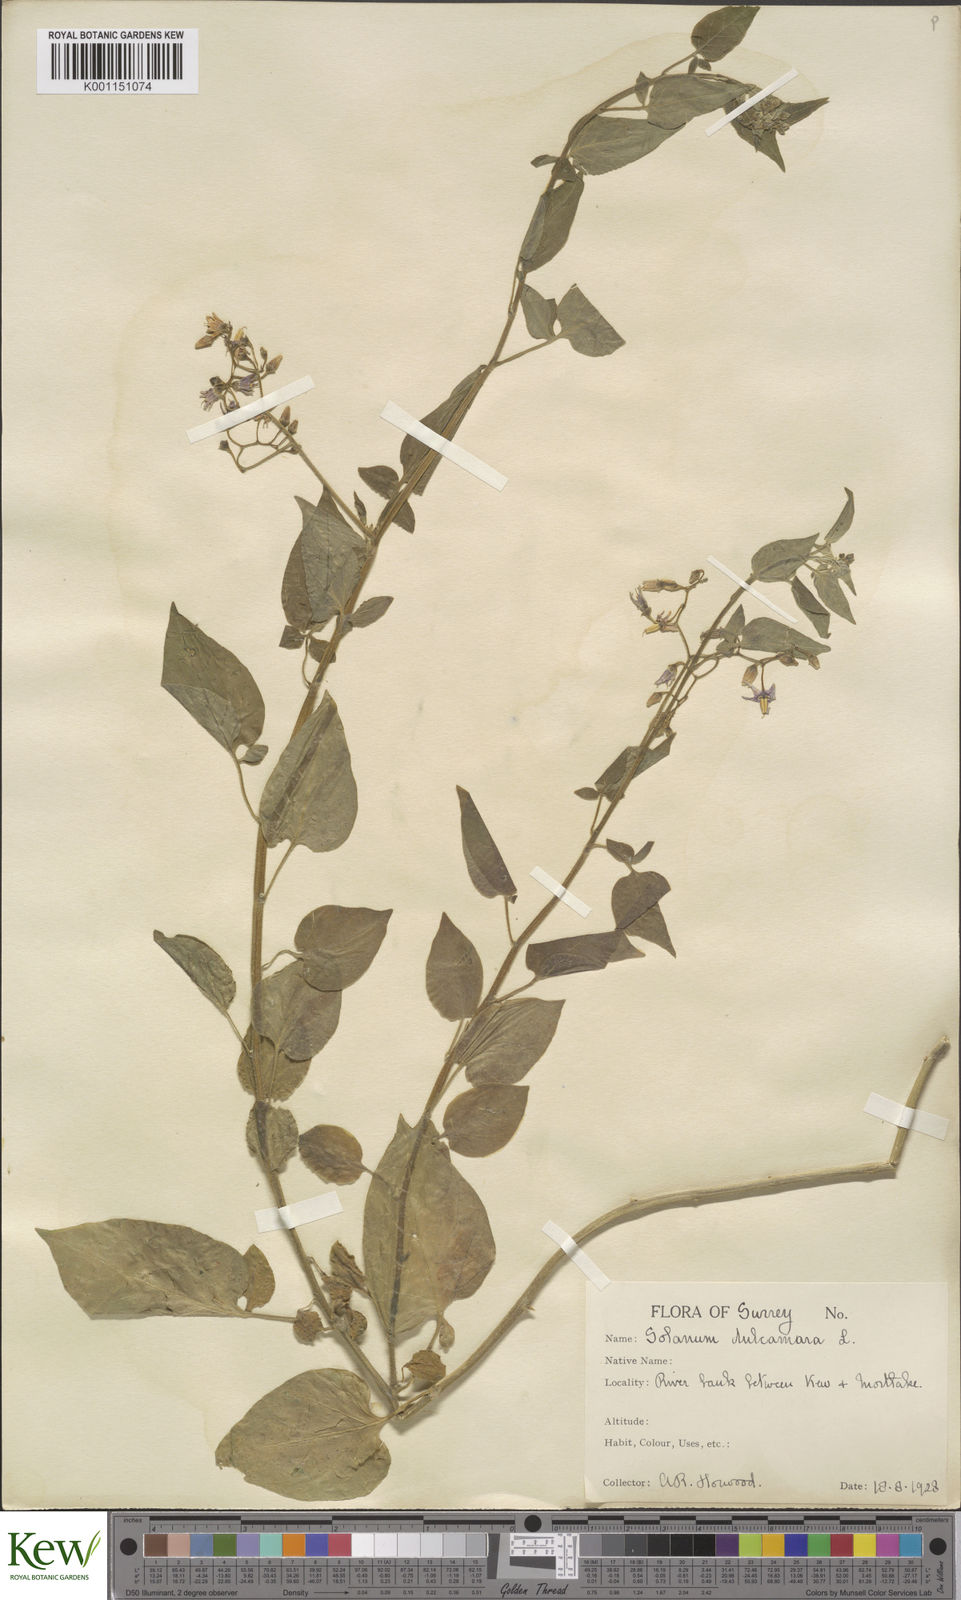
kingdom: Plantae
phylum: Tracheophyta
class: Magnoliopsida
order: Solanales
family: Solanaceae
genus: Solanum
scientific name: Solanum dulcamara
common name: Climbing nightshade
